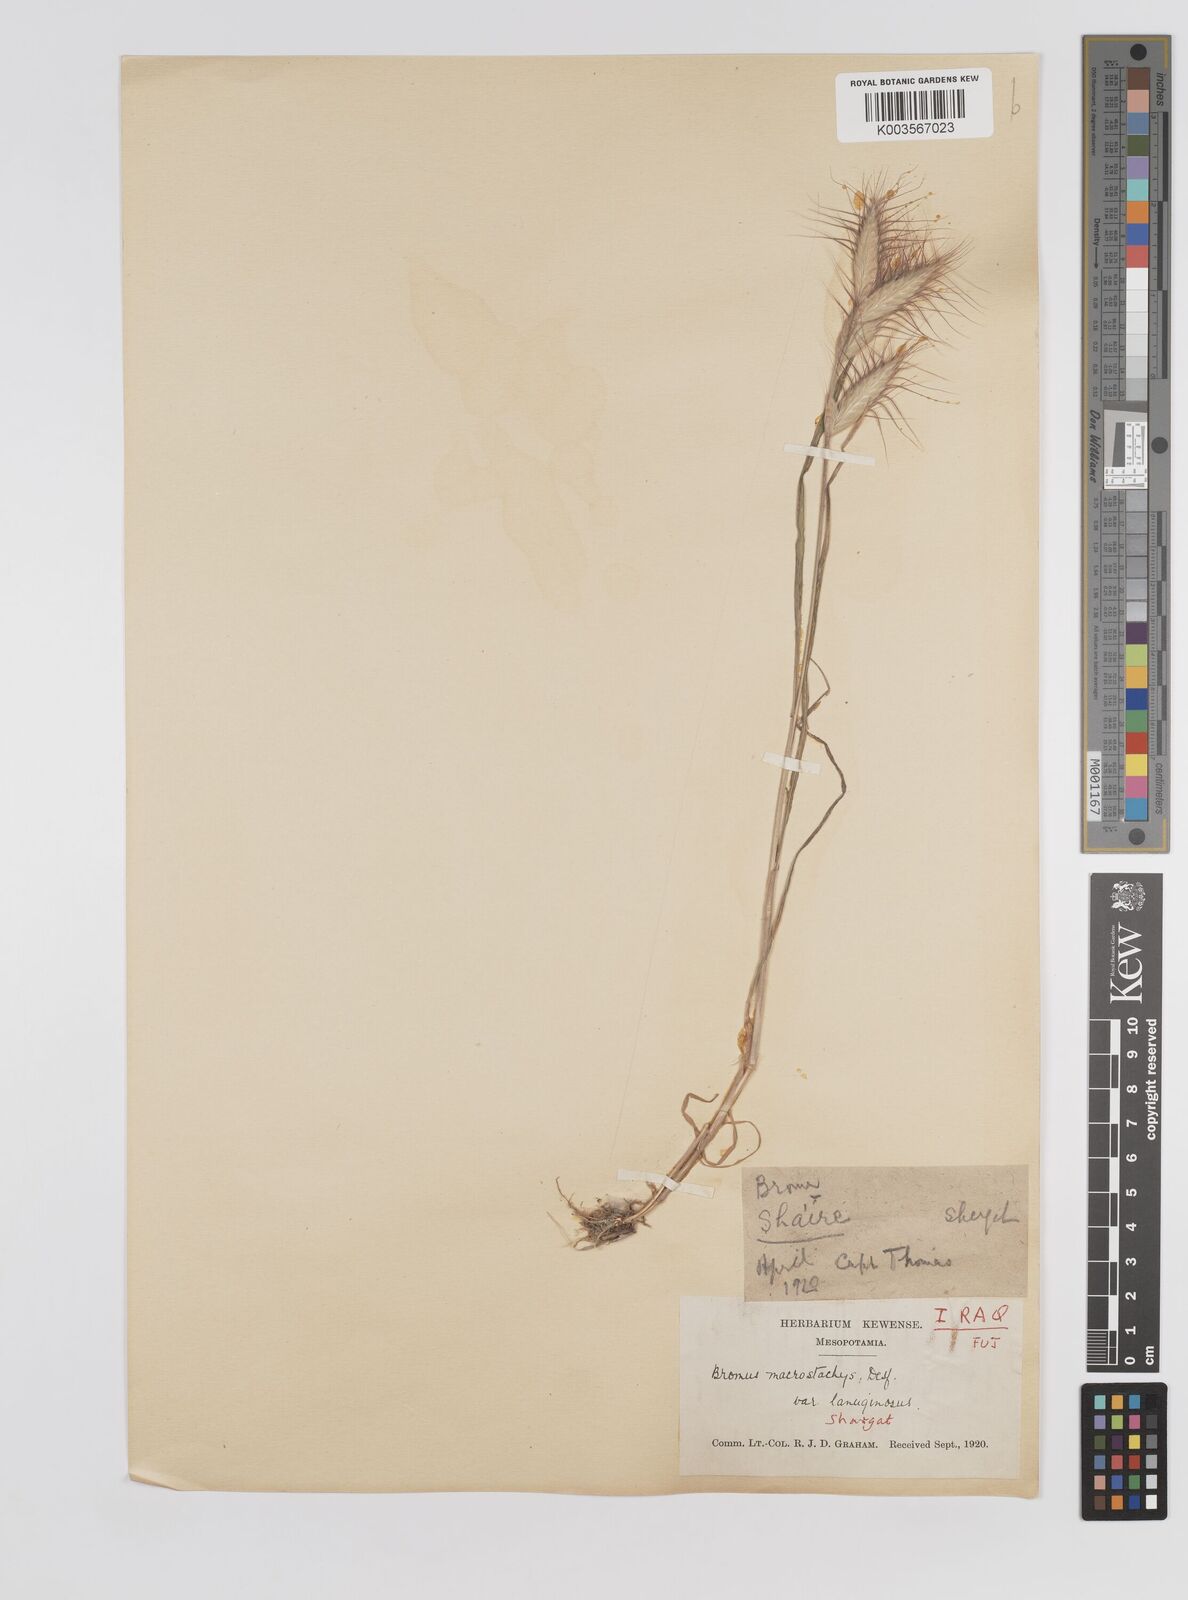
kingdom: Plantae
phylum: Tracheophyta
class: Liliopsida
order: Poales
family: Poaceae
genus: Bromus
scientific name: Bromus danthoniae
